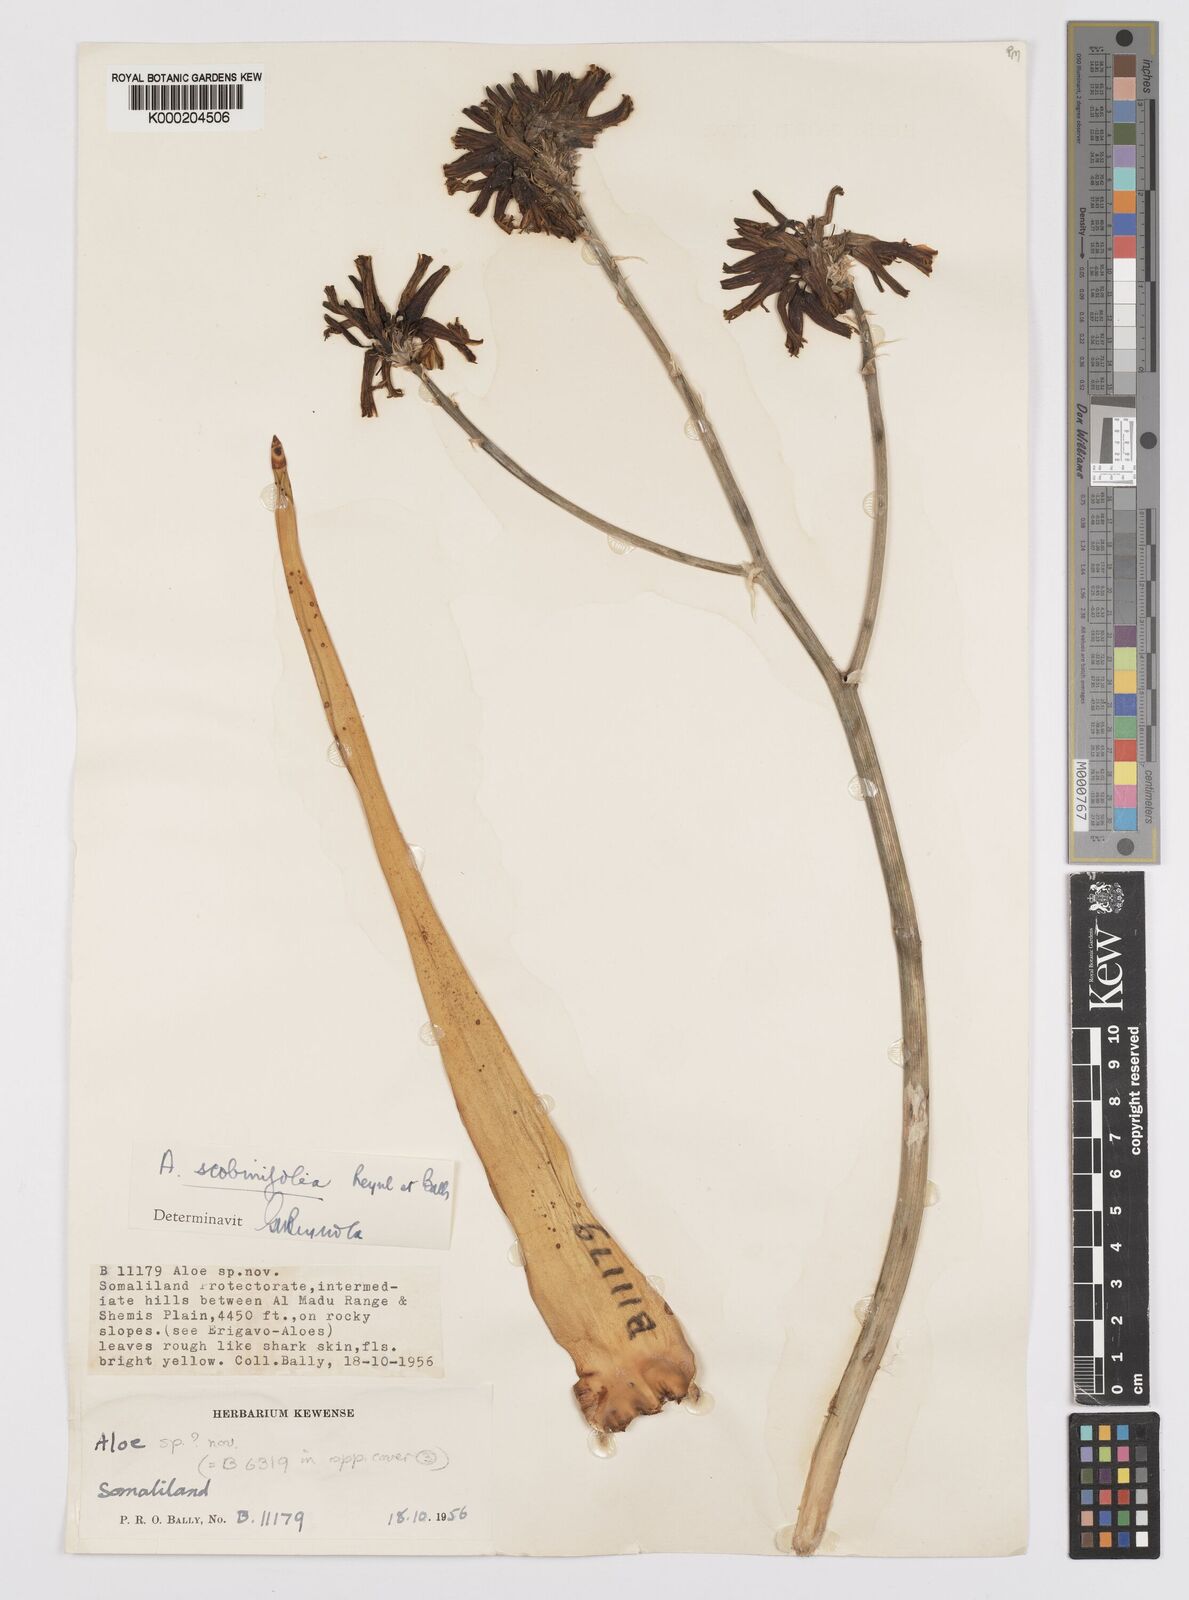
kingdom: Plantae
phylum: Tracheophyta
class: Liliopsida
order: Asparagales
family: Asphodelaceae
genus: Aloe
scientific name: Aloe scobinifolia
